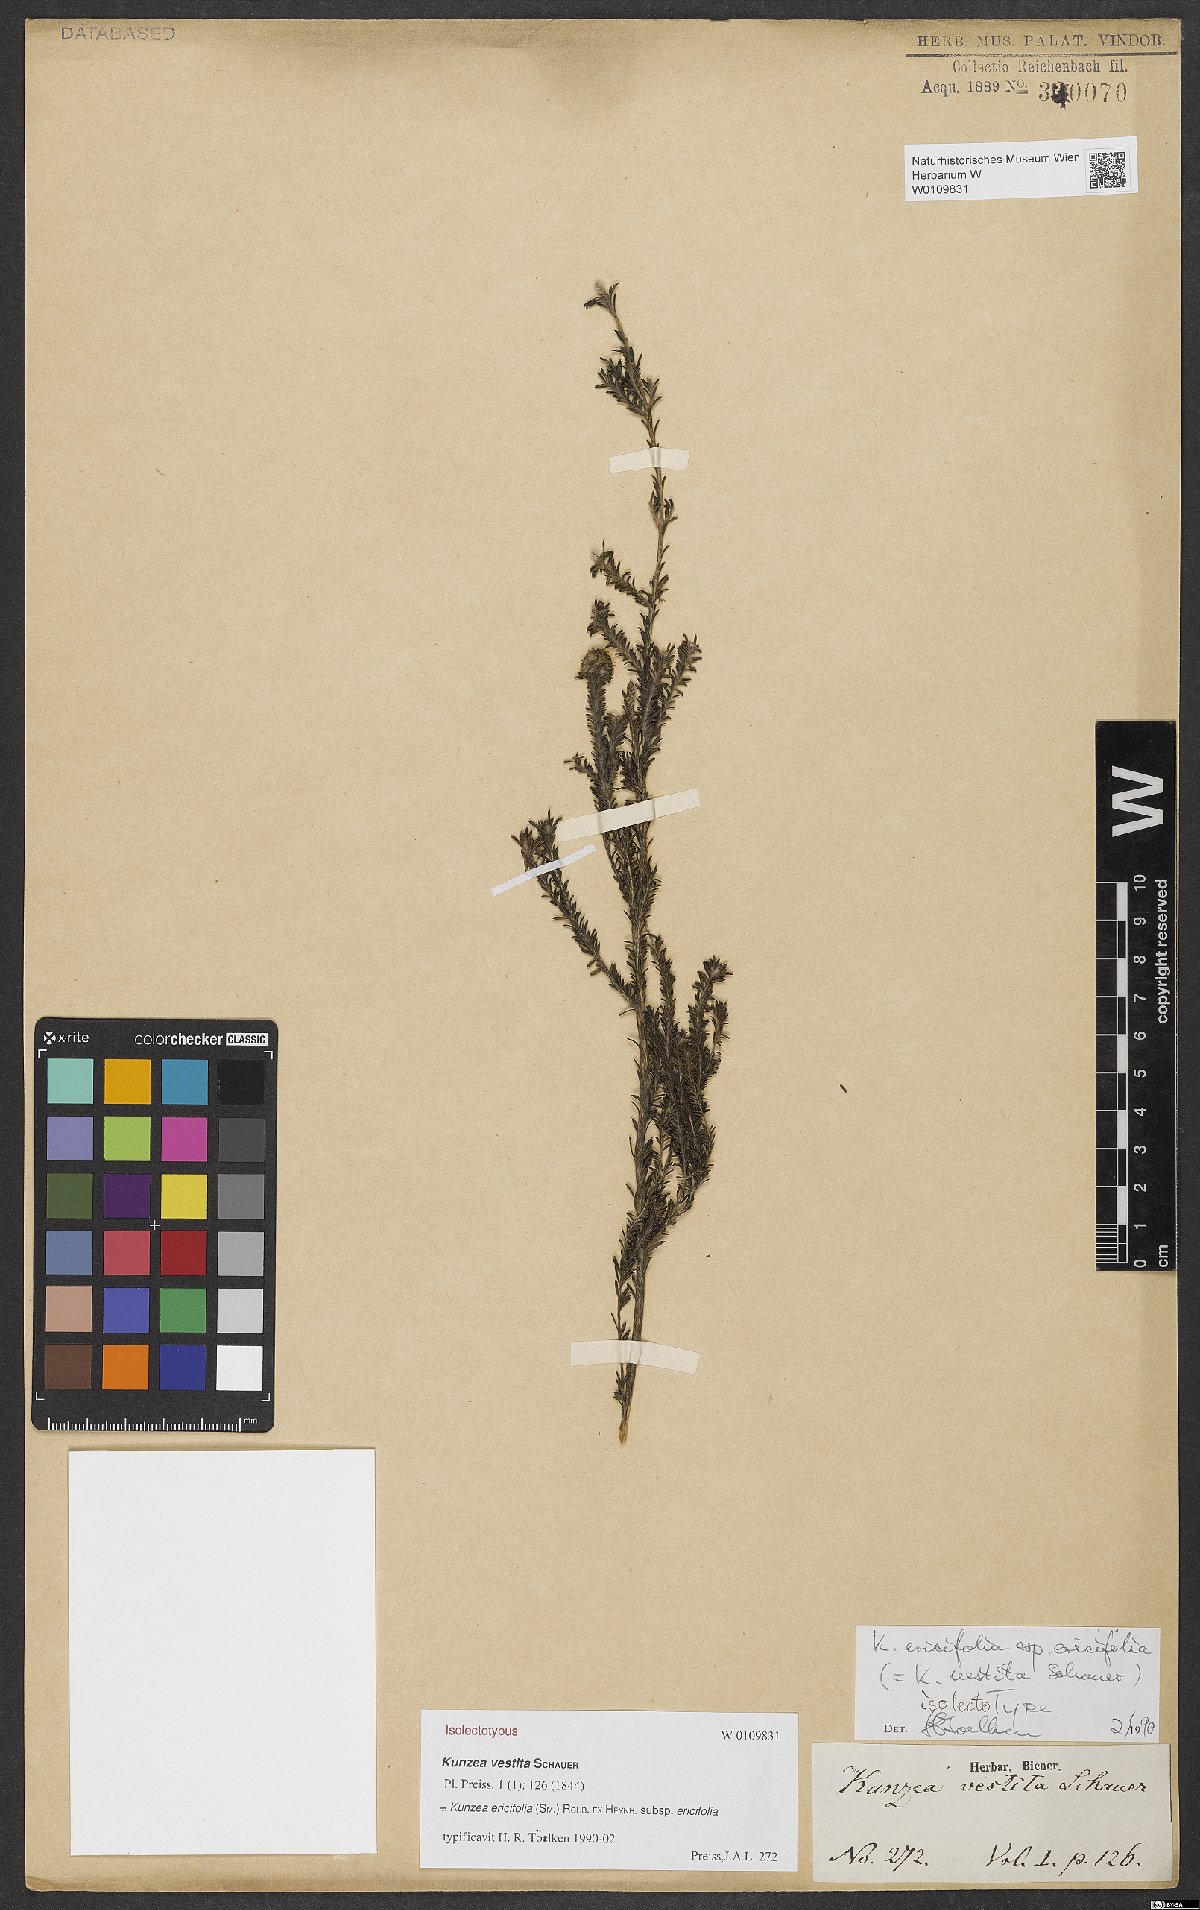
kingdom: Plantae
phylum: Tracheophyta
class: Magnoliopsida
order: Myrtales
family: Myrtaceae
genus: Kunzea
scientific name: Kunzea ericifolia
